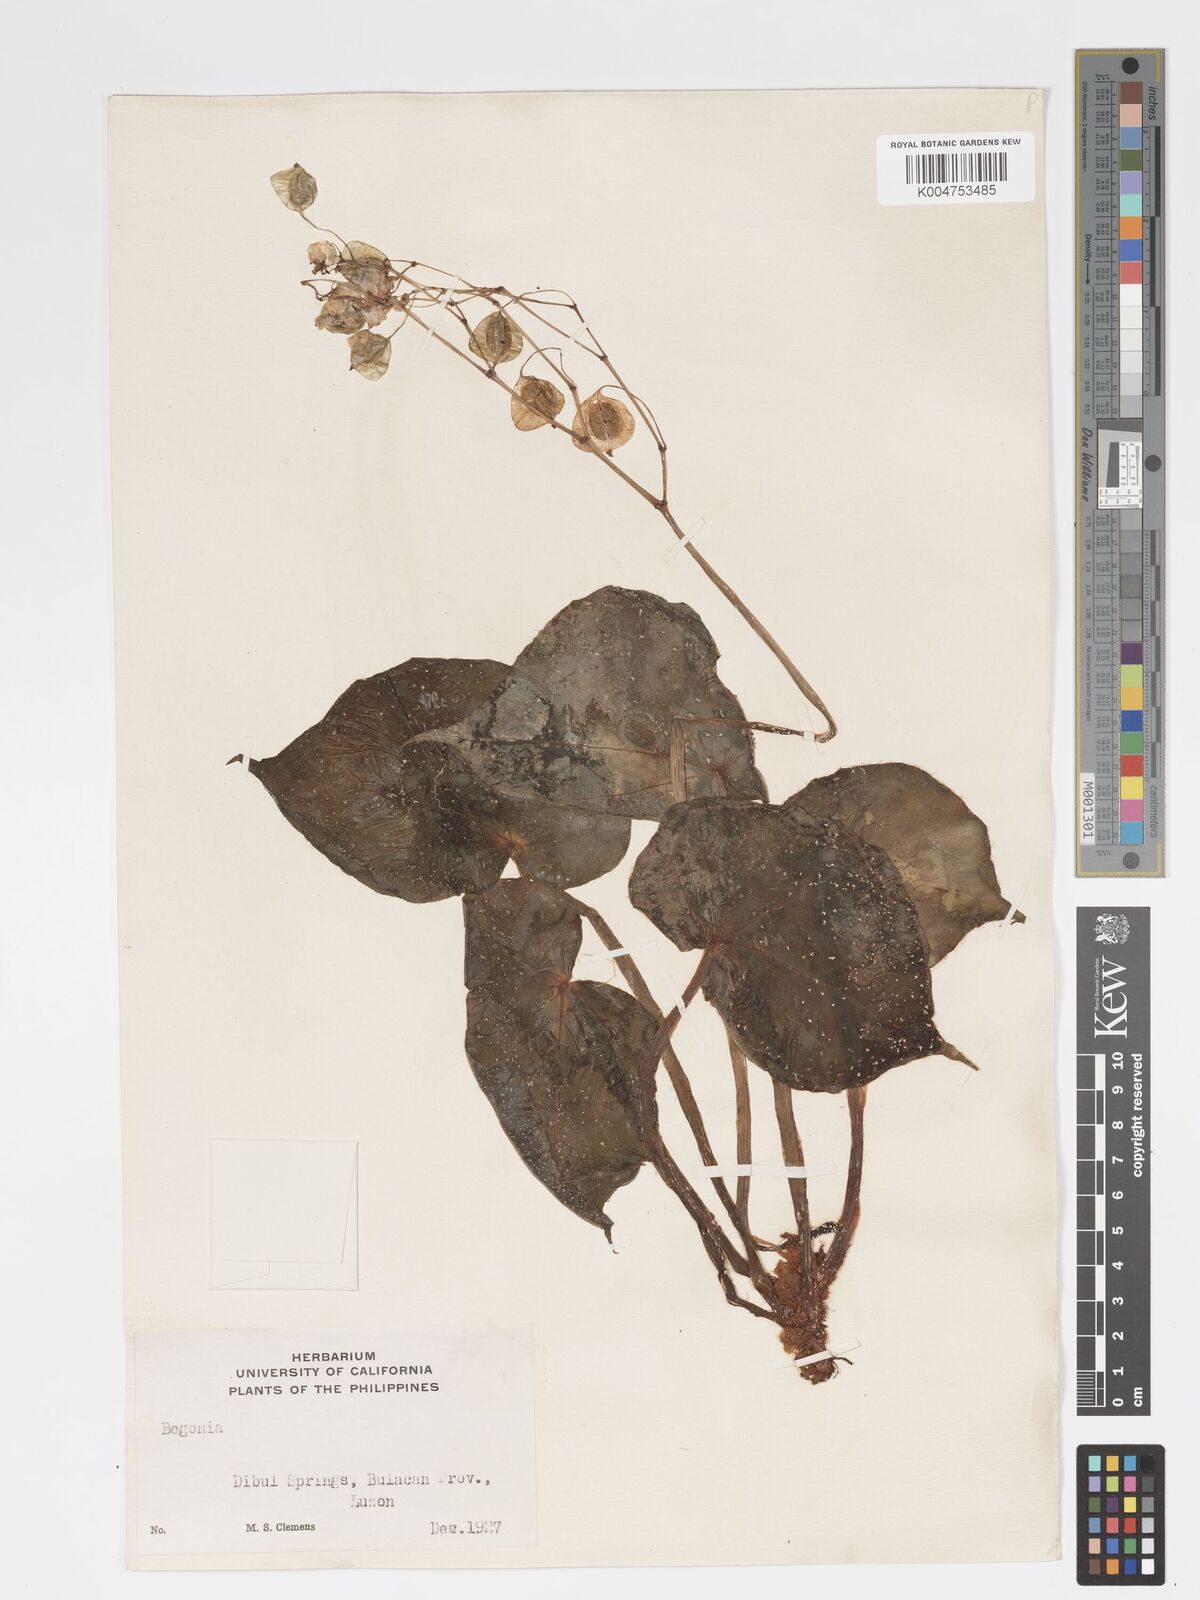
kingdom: Plantae
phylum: Tracheophyta
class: Magnoliopsida
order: Cucurbitales
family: Begoniaceae
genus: Begonia
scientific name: Begonia
